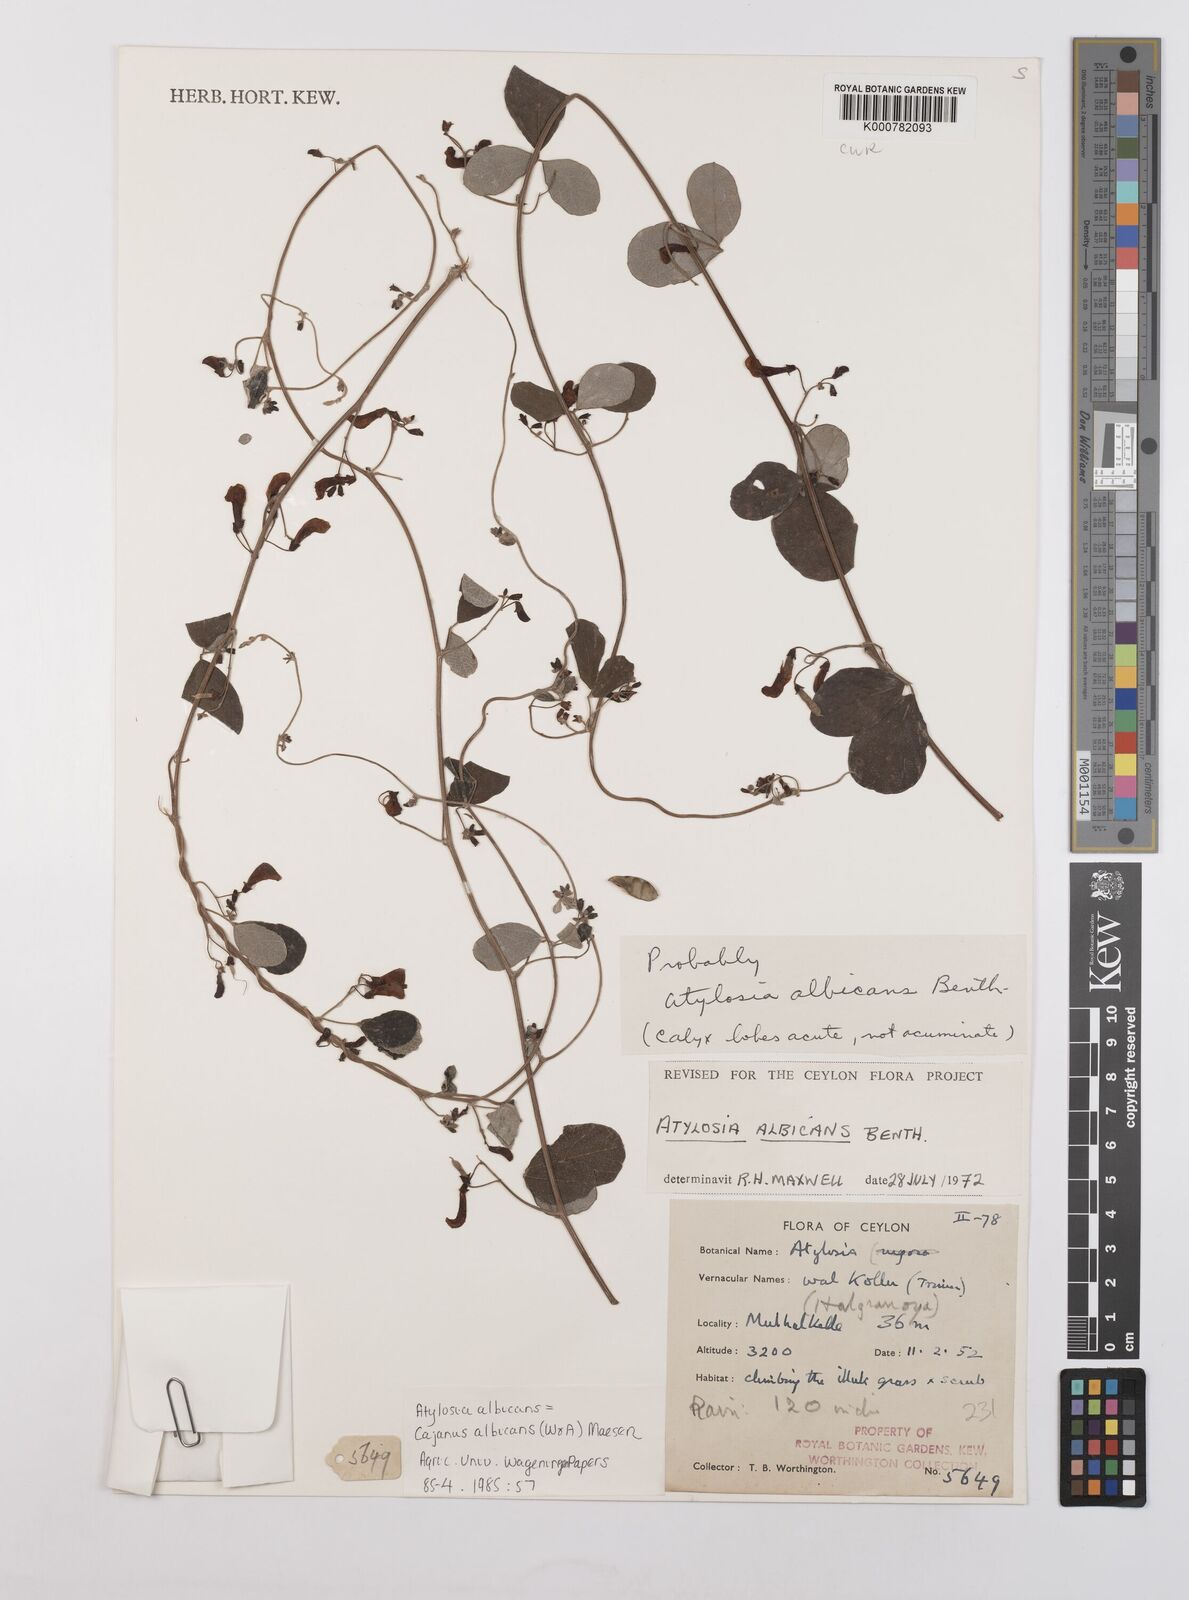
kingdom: Plantae
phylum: Tracheophyta
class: Magnoliopsida
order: Fabales
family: Fabaceae
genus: Cajanus
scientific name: Cajanus albicans
